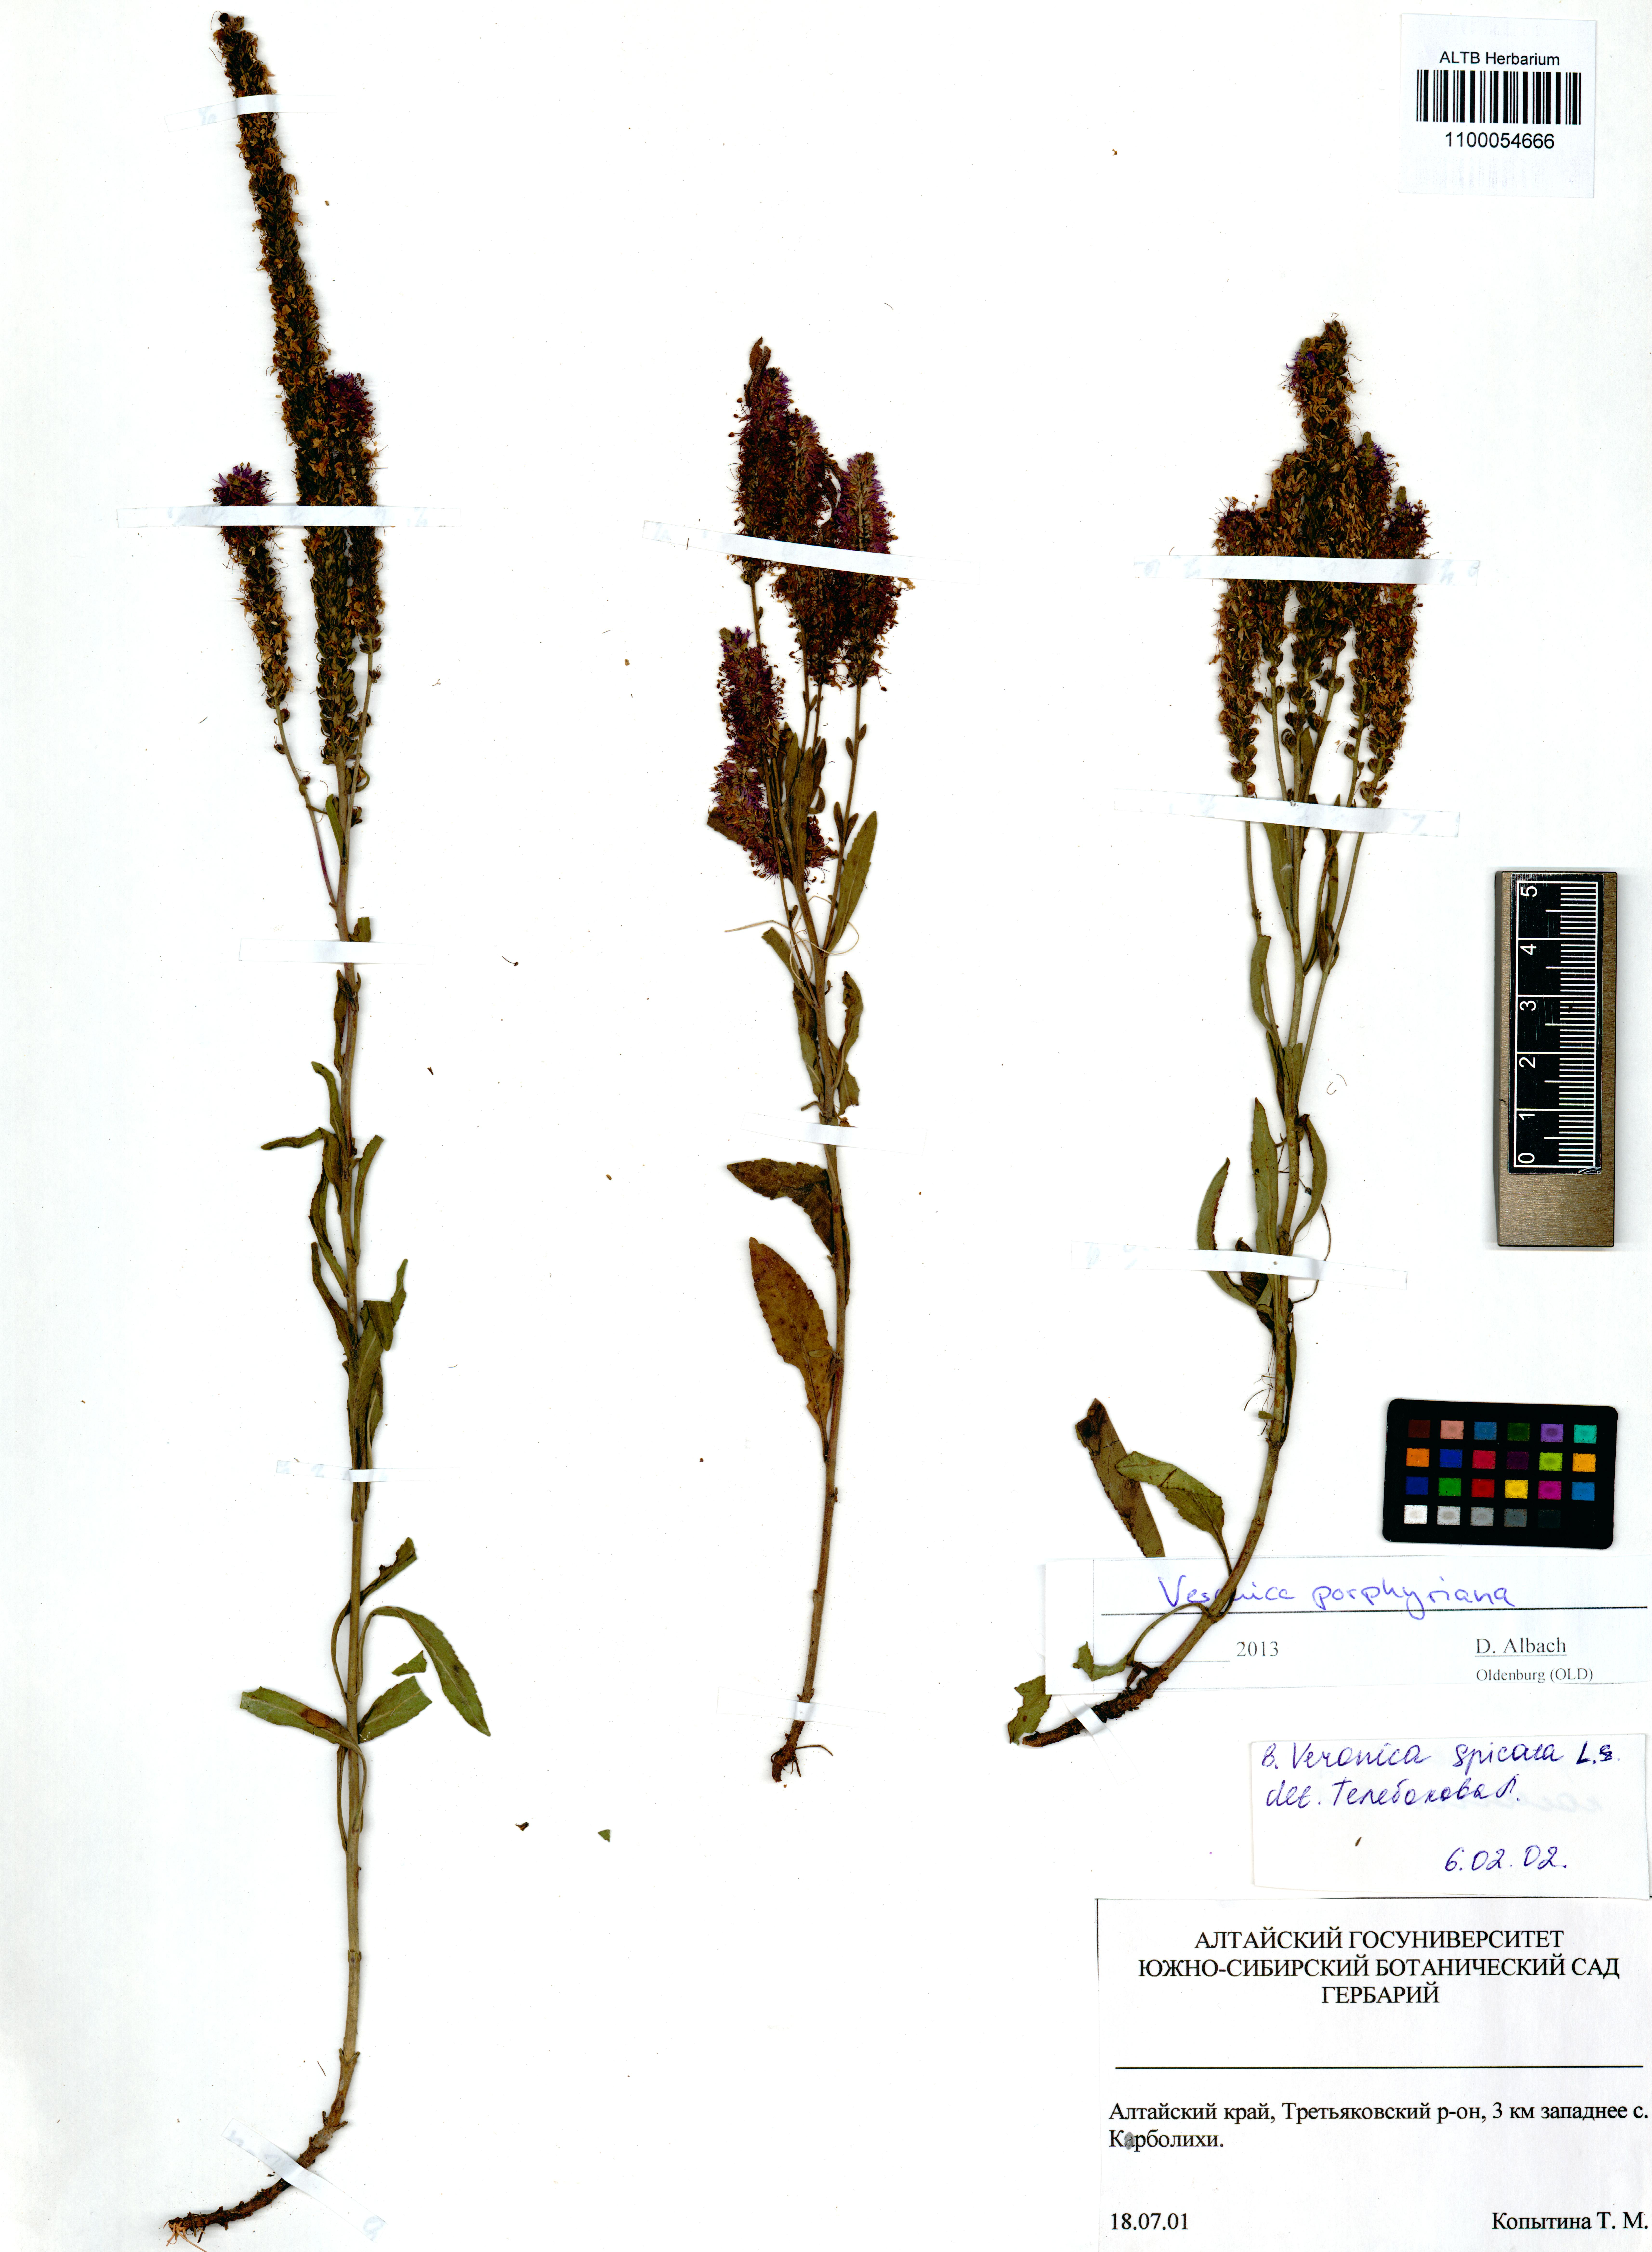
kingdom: Plantae
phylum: Tracheophyta
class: Magnoliopsida
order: Lamiales
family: Plantaginaceae
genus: Veronica
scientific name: Veronica porphyriana
